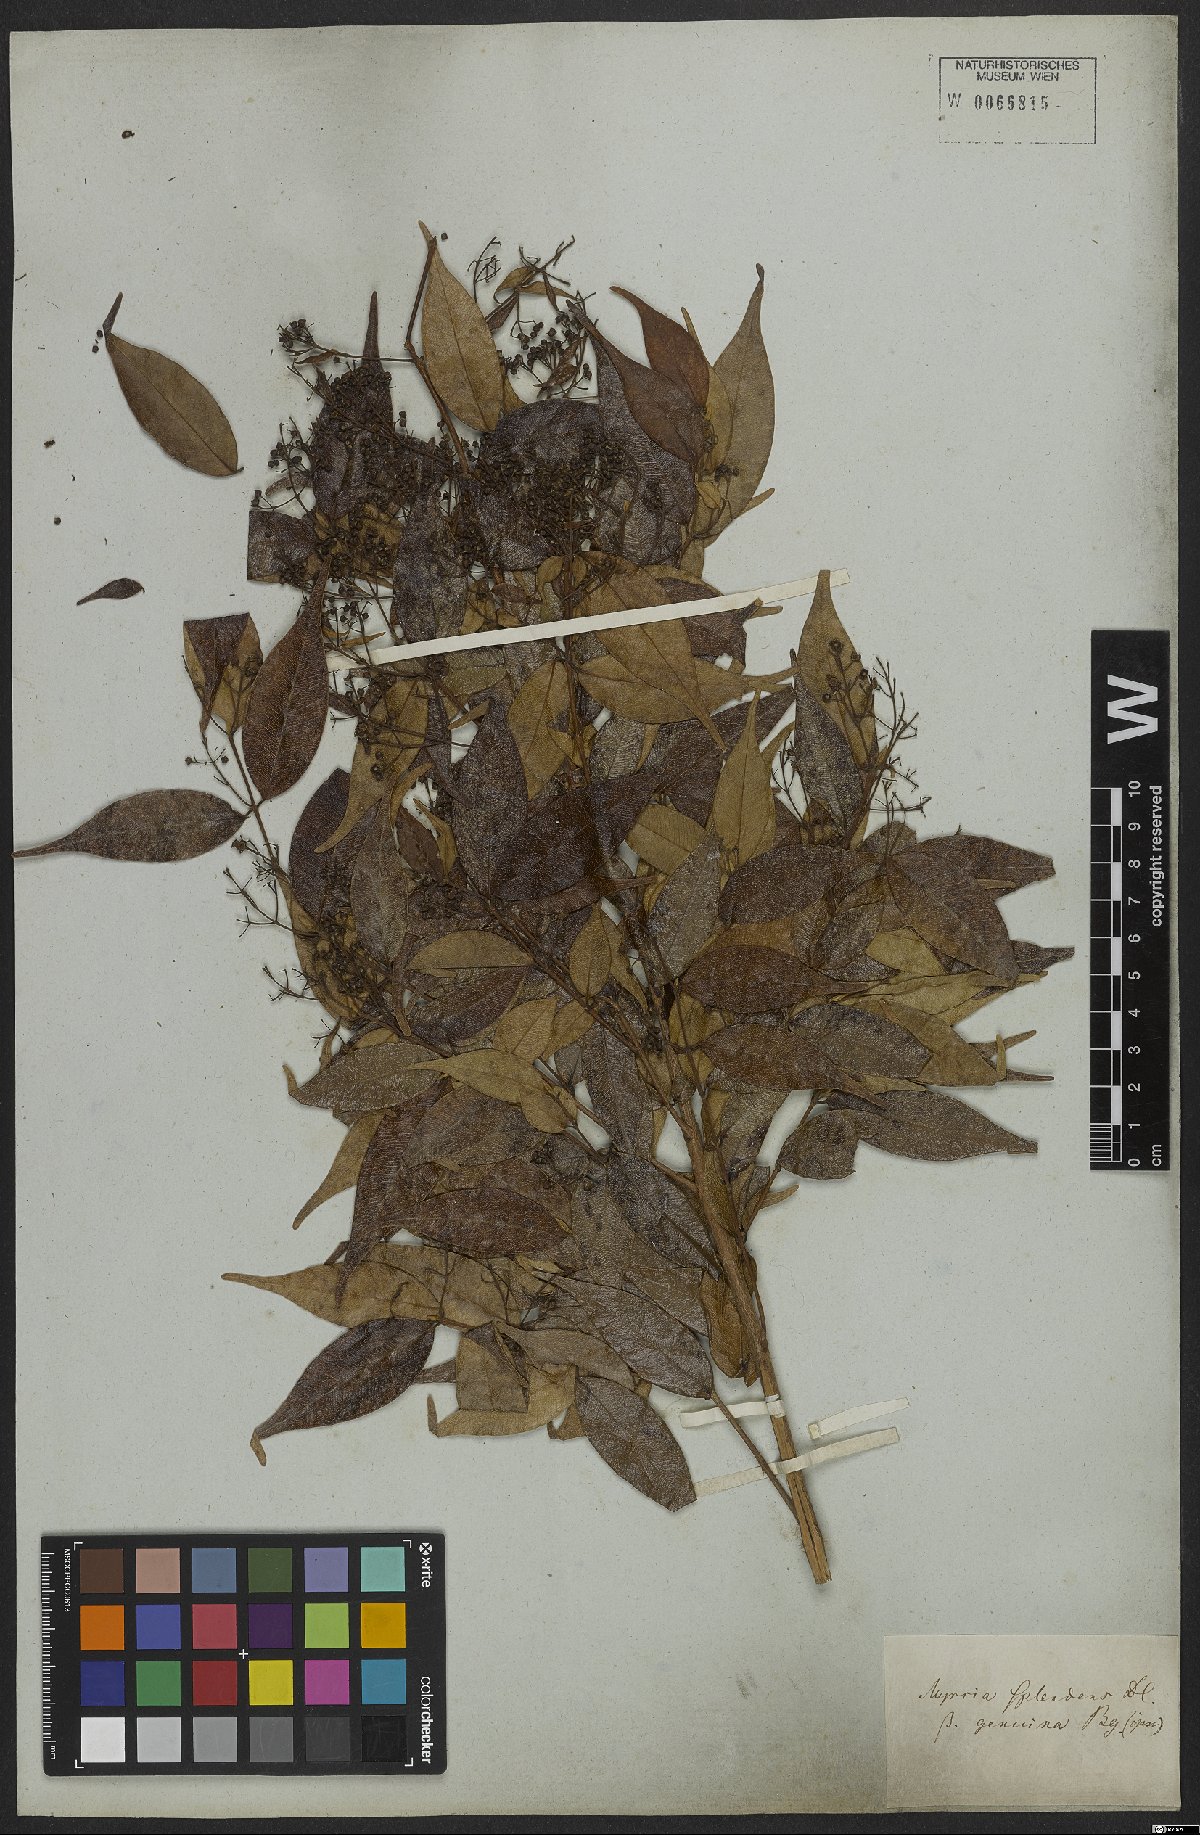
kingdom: Plantae
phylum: Tracheophyta
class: Magnoliopsida
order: Myrtales
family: Myrtaceae
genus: Myrcia
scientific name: Myrcia splendens
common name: Surinam cherry
